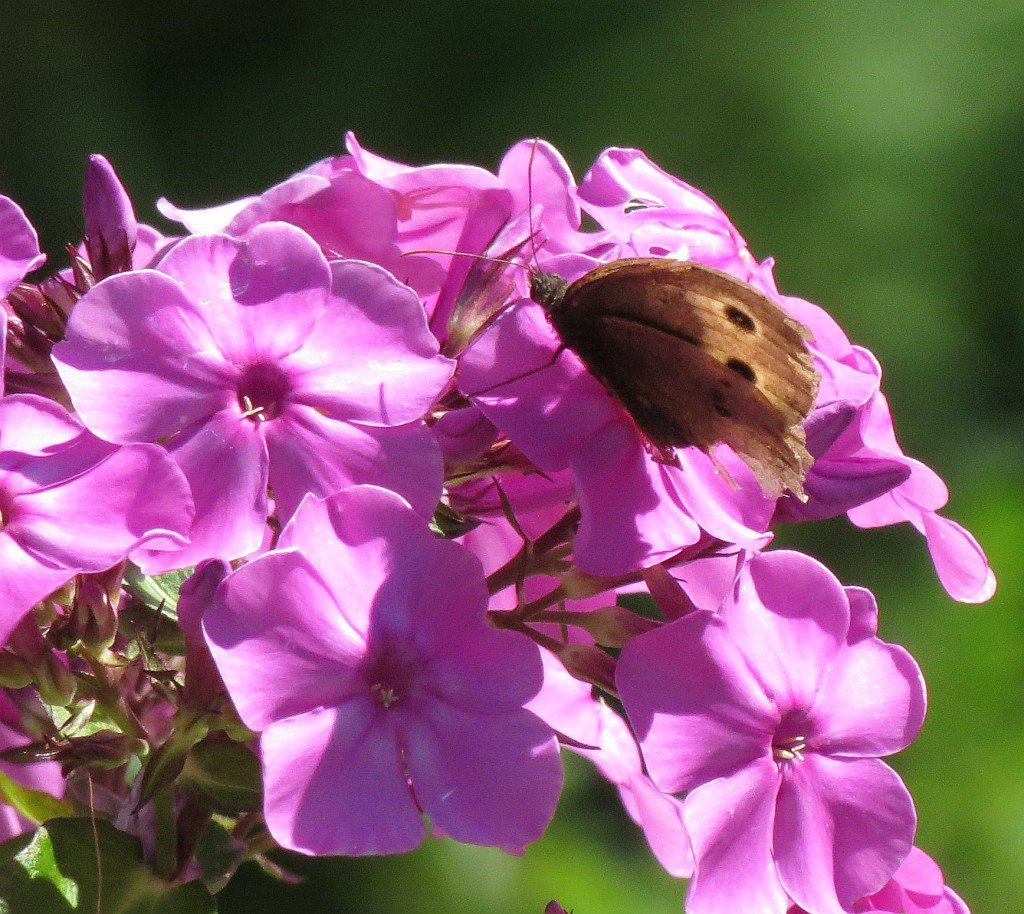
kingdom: Animalia
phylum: Arthropoda
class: Insecta
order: Lepidoptera
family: Nymphalidae
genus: Cercyonis
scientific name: Cercyonis pegala
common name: Common Wood-Nymph
